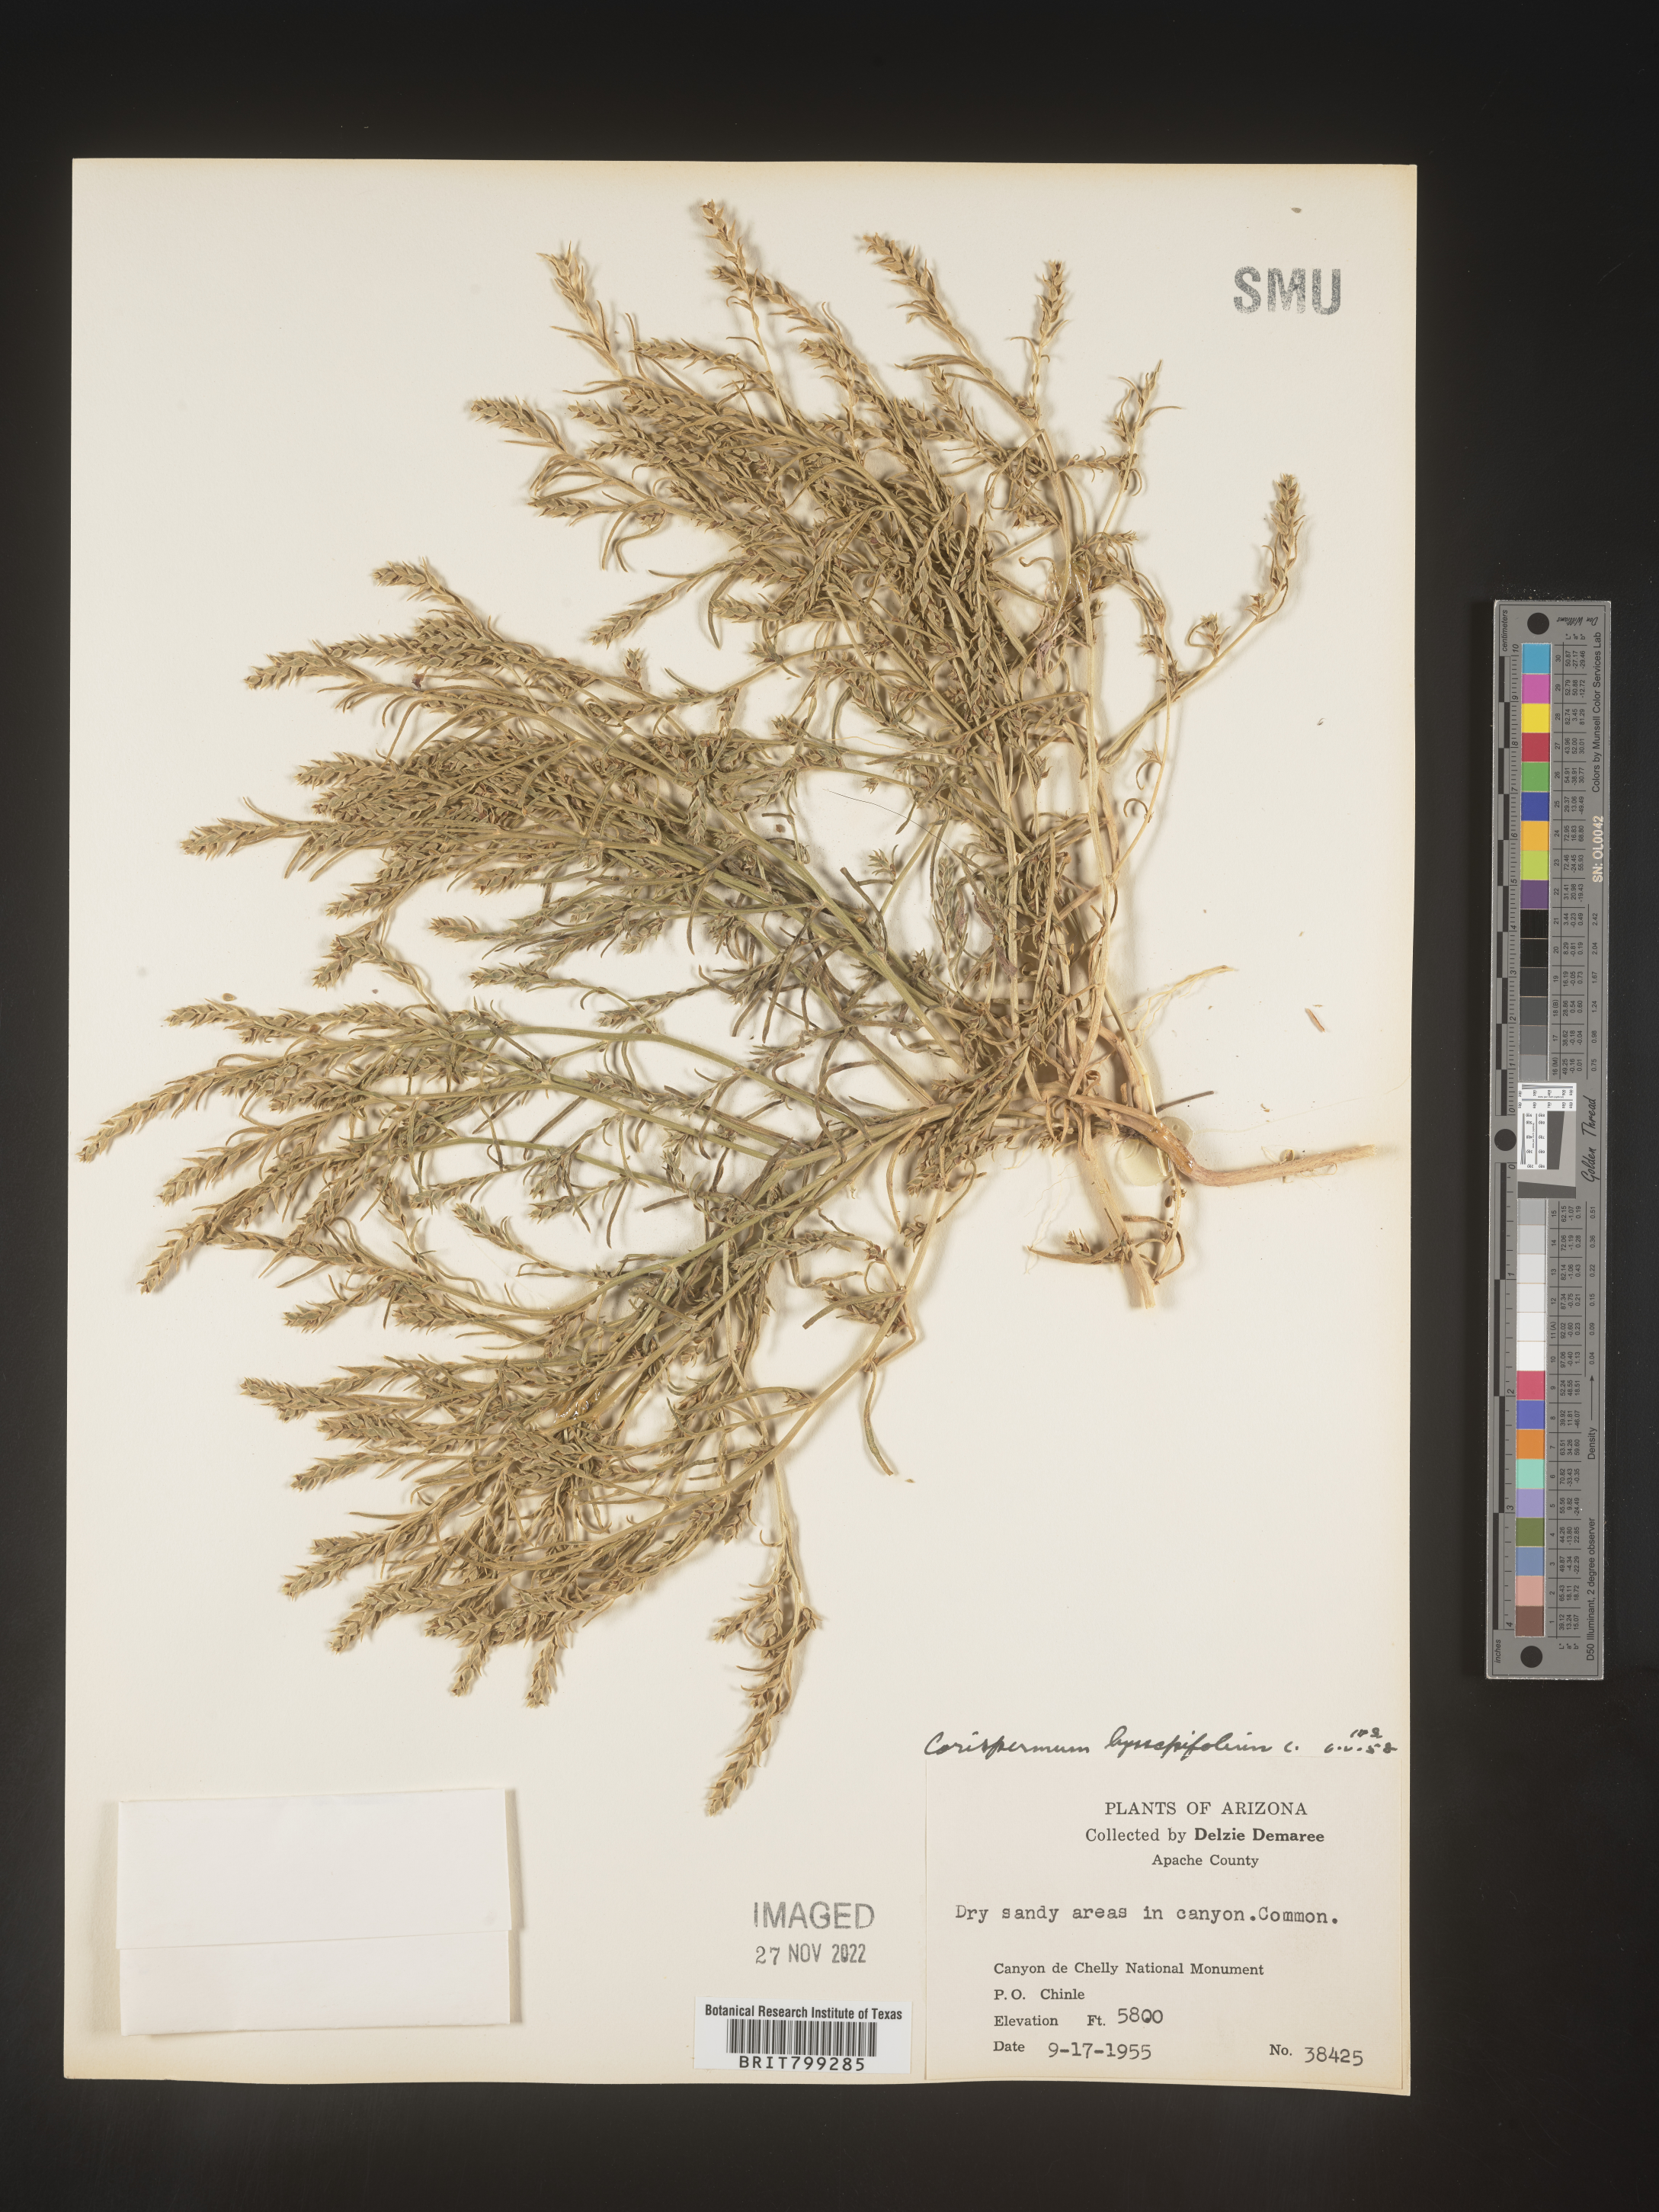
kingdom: Plantae
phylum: Tracheophyta
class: Magnoliopsida
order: Caryophyllales
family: Amaranthaceae
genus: Corispermum
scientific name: Corispermum americanum
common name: American bugseed
